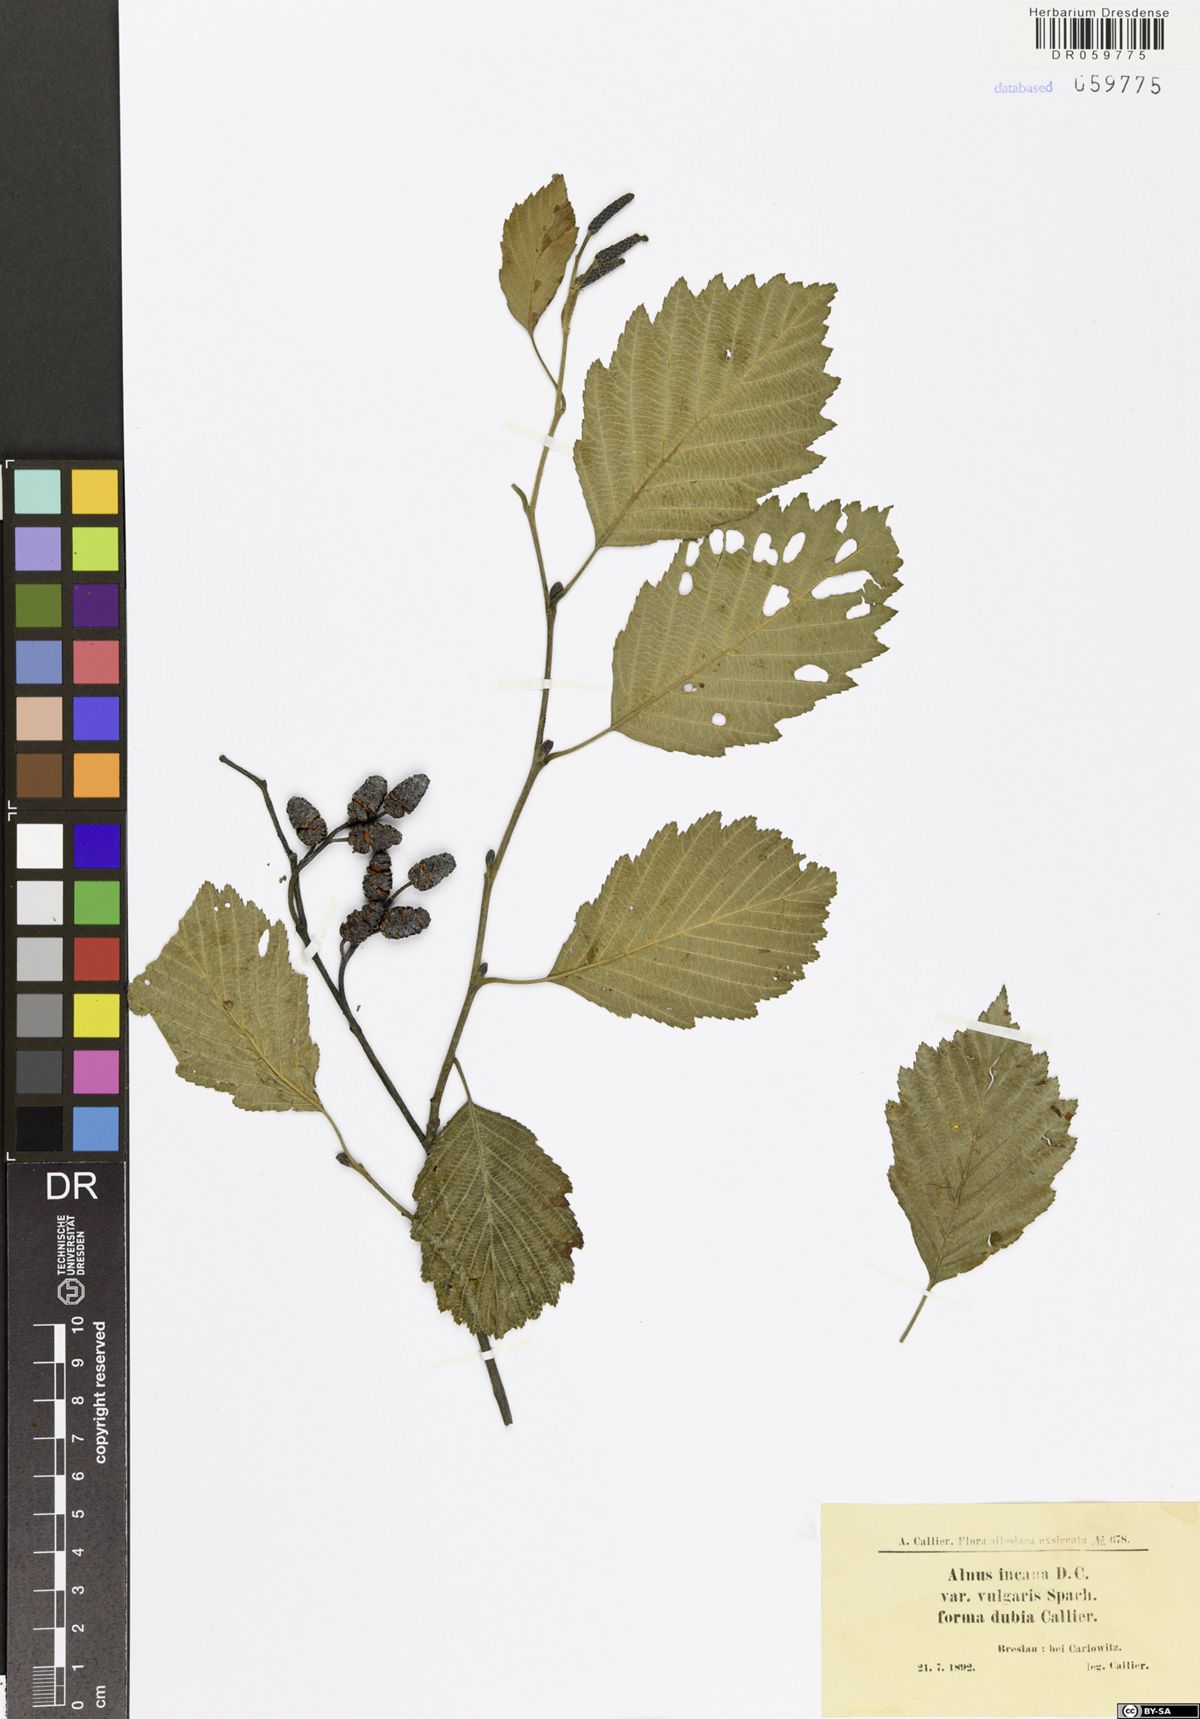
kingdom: Plantae
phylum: Tracheophyta
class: Magnoliopsida
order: Fagales
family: Betulaceae
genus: Alnus
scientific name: Alnus incana
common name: Grey alder
